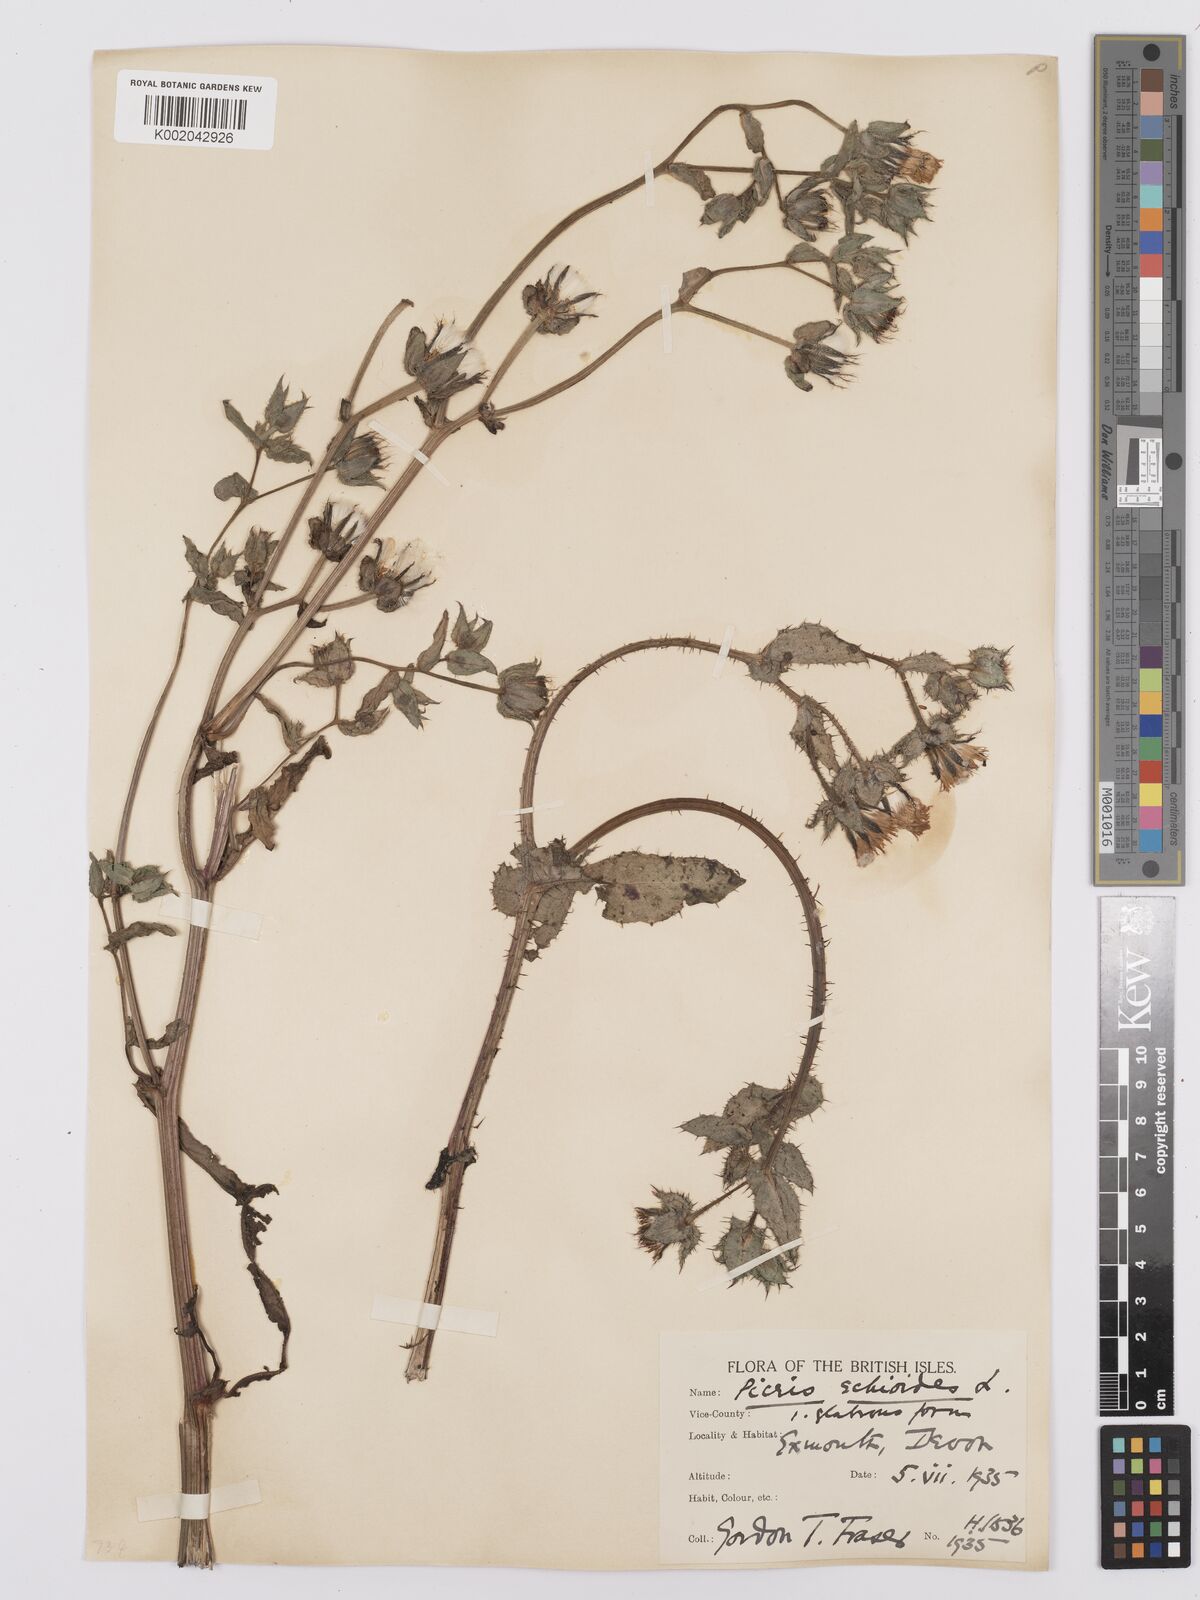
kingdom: Plantae
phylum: Tracheophyta
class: Magnoliopsida
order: Asterales
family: Asteraceae
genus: Helminthotheca
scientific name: Helminthotheca echioides
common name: Ox-tongue
